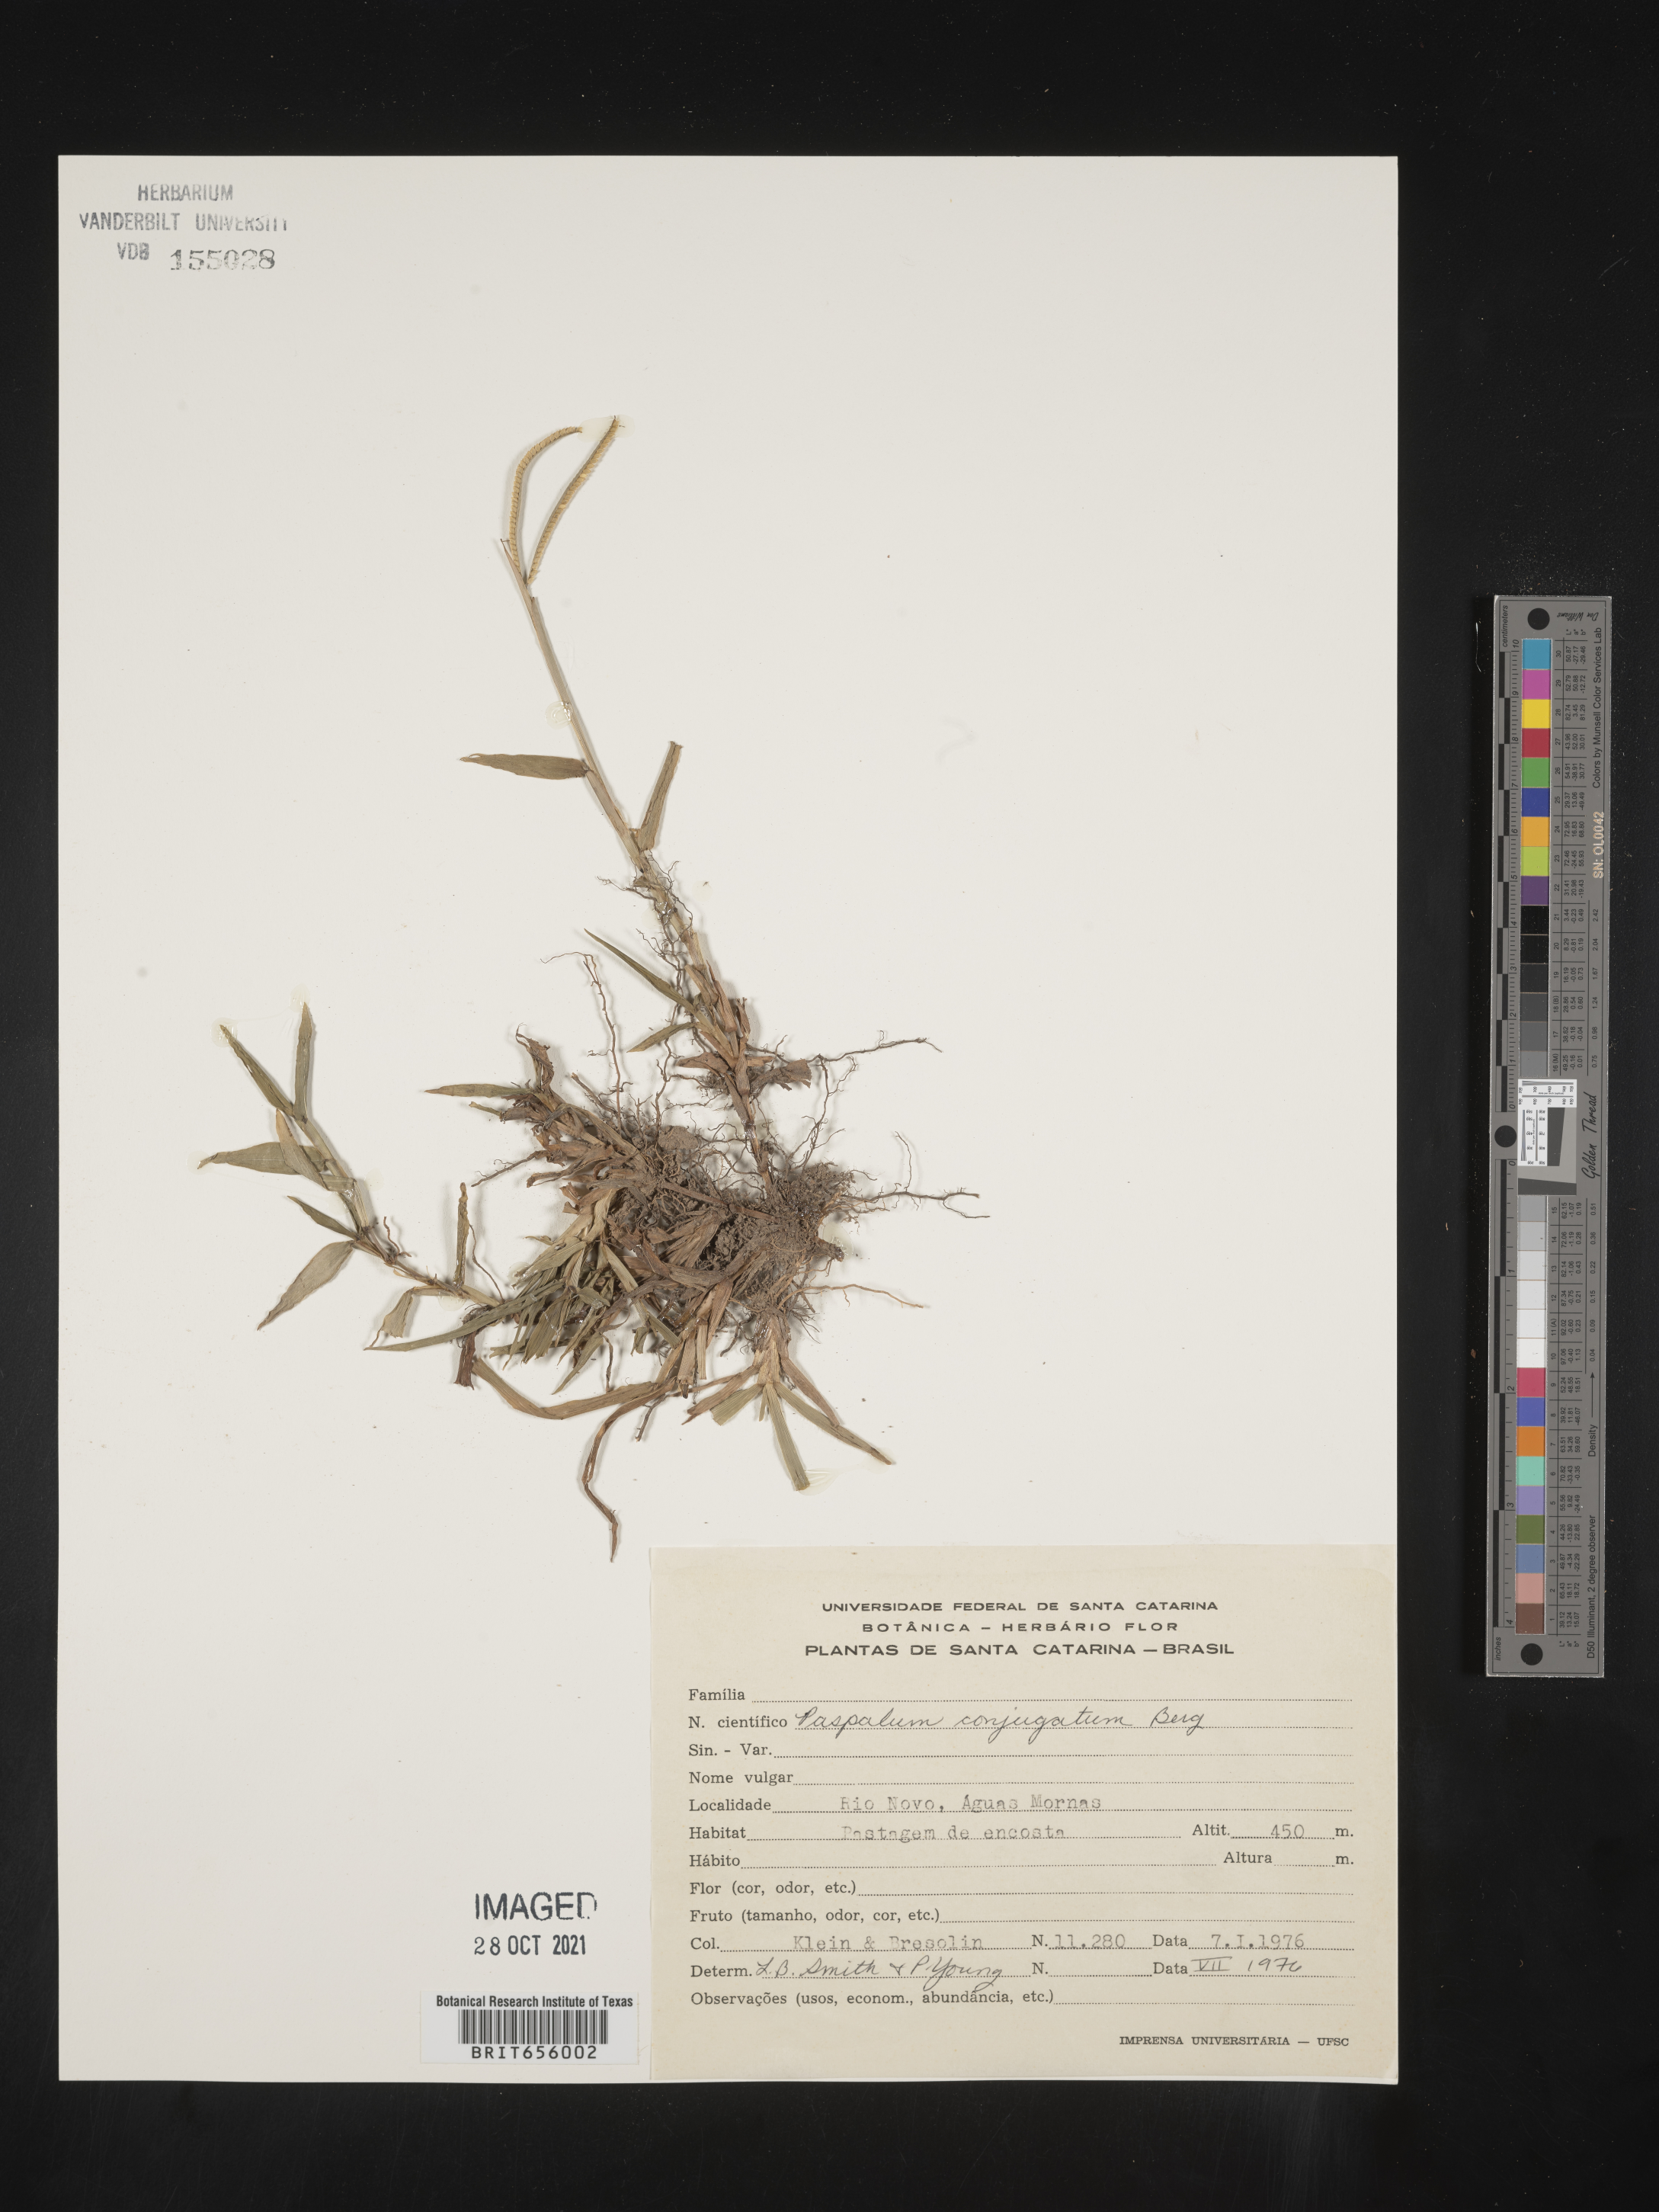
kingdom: Plantae
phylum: Tracheophyta
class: Liliopsida
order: Poales
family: Poaceae
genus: Paspalum
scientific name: Paspalum
